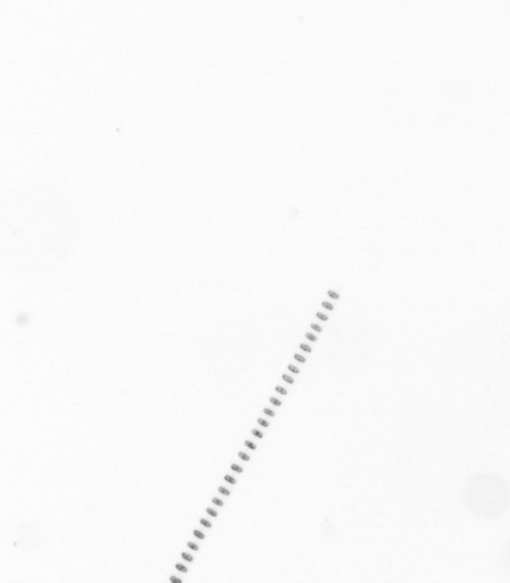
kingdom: Chromista
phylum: Ochrophyta
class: Bacillariophyceae
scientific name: Bacillariophyceae
